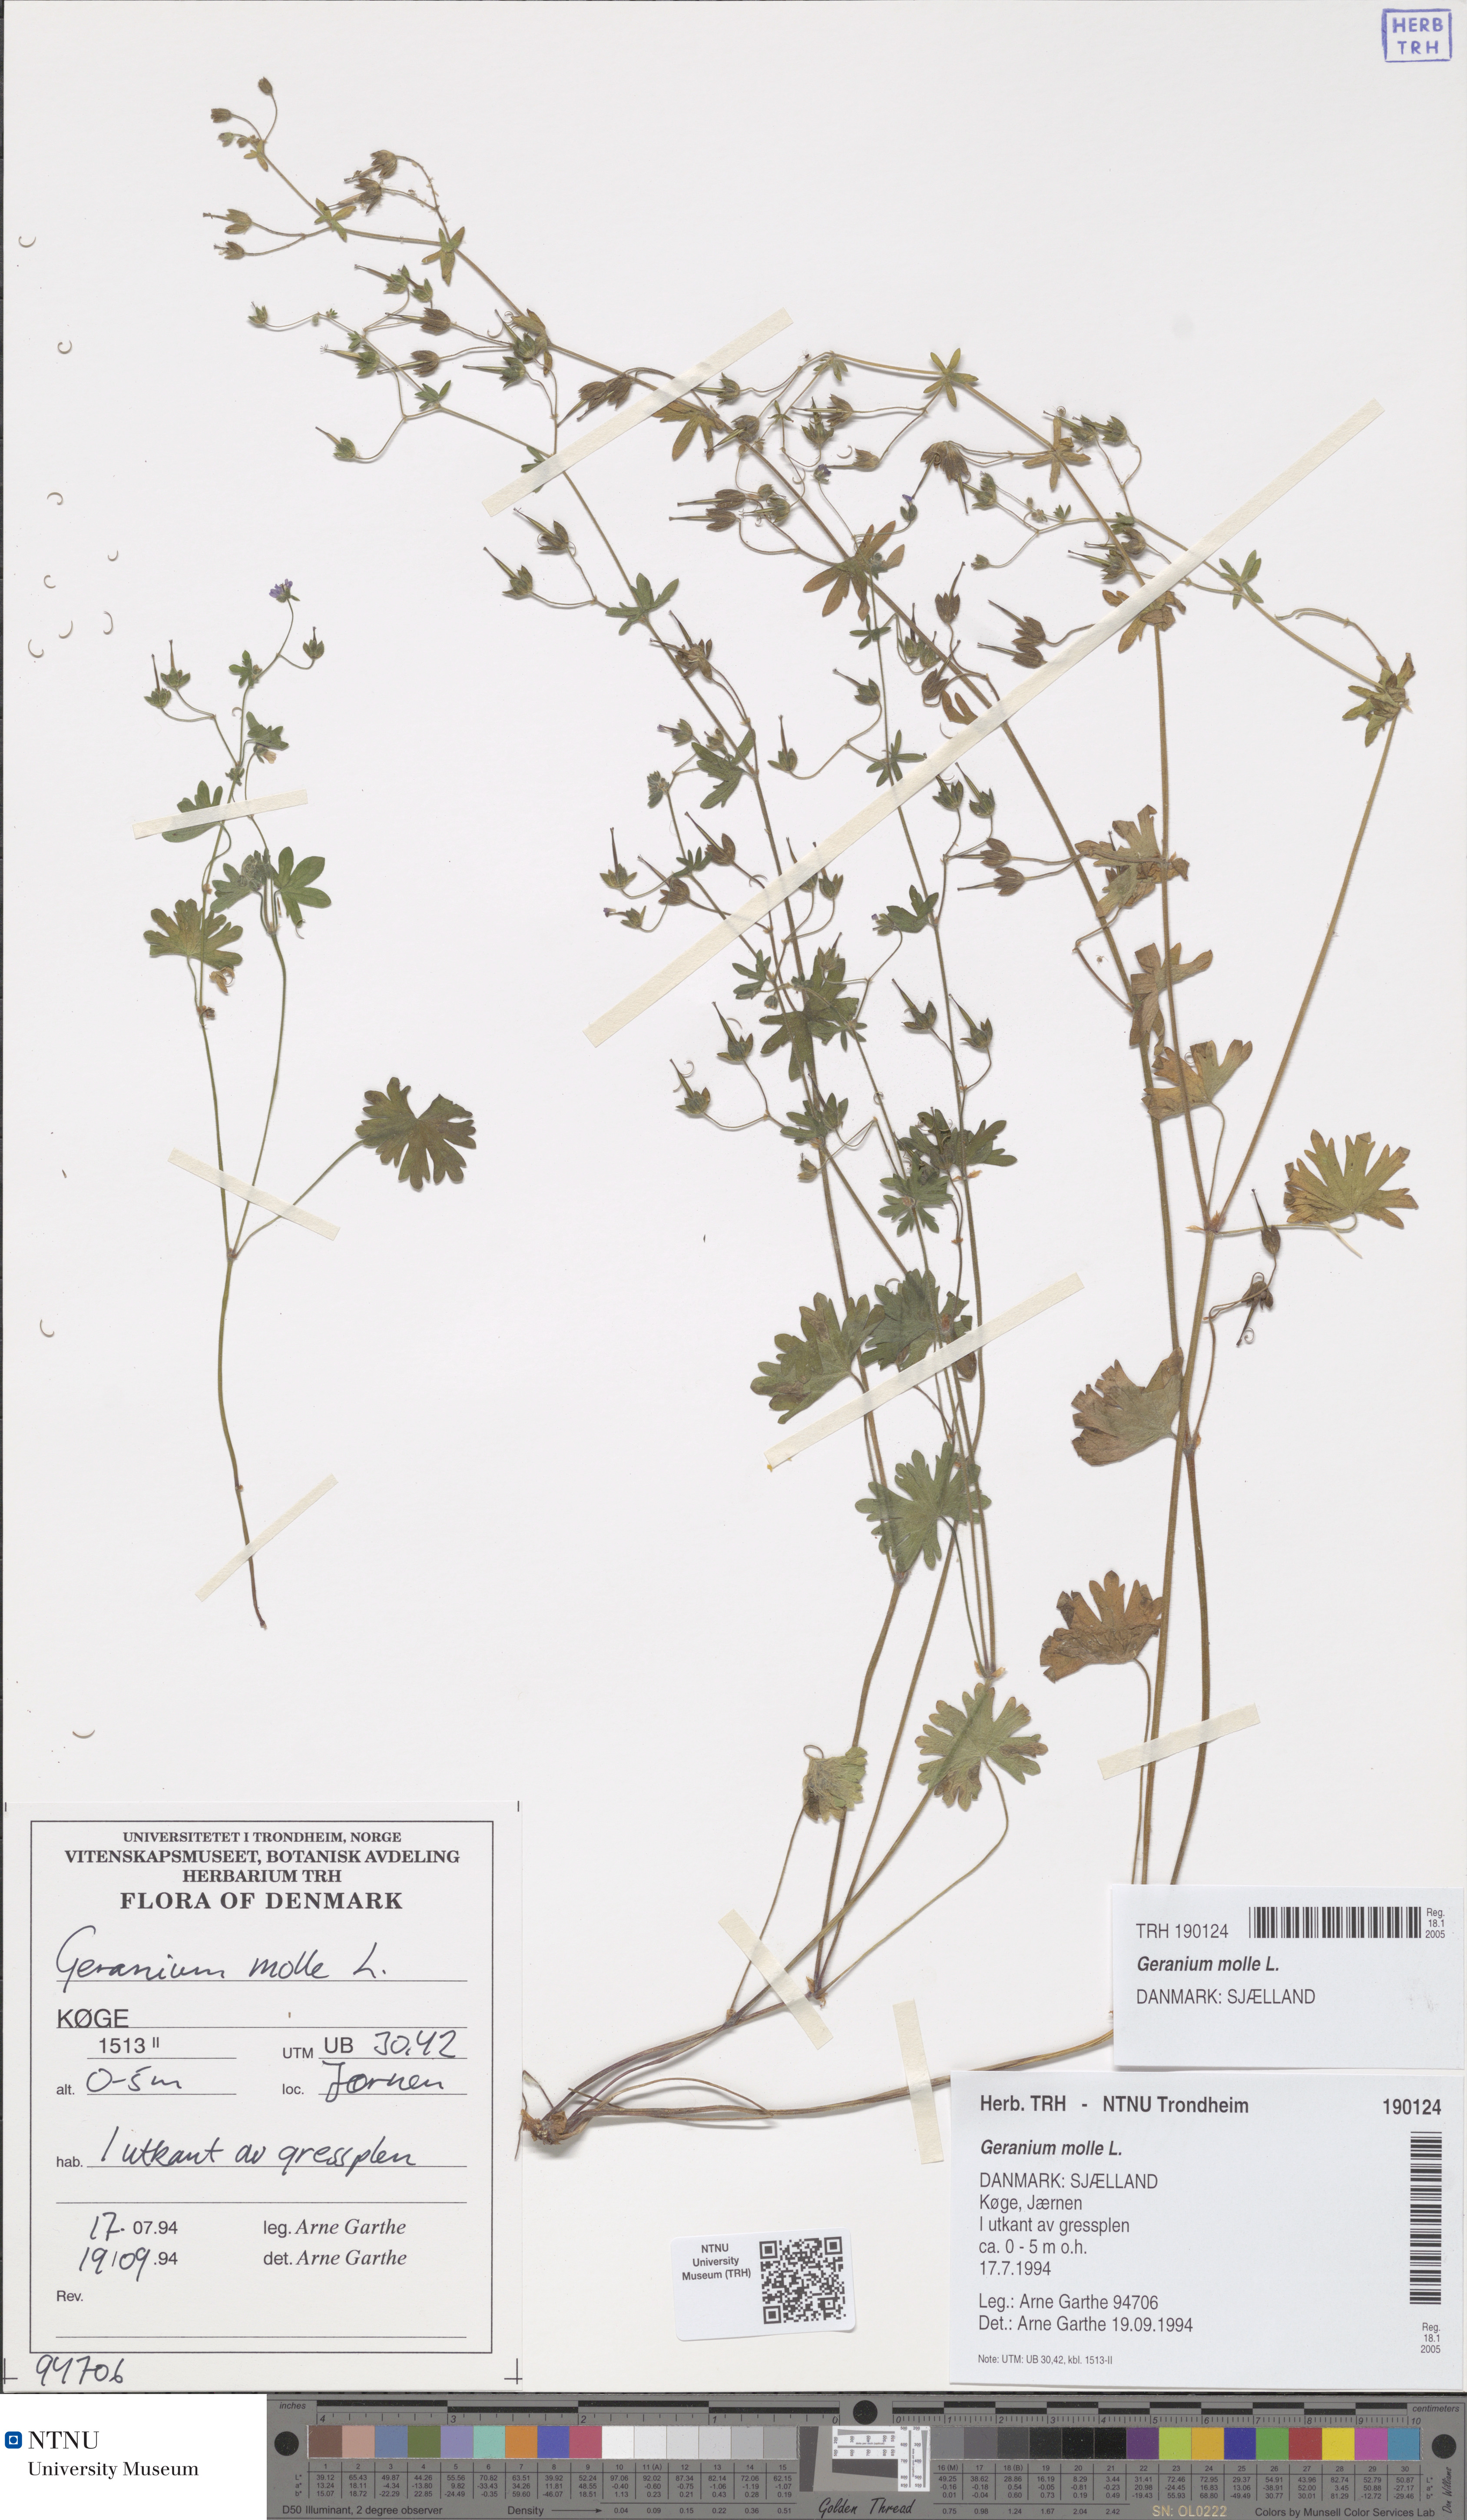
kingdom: Plantae
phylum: Tracheophyta
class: Magnoliopsida
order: Geraniales
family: Geraniaceae
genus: Geranium
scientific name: Geranium molle
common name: Dove's-foot crane's-bill
